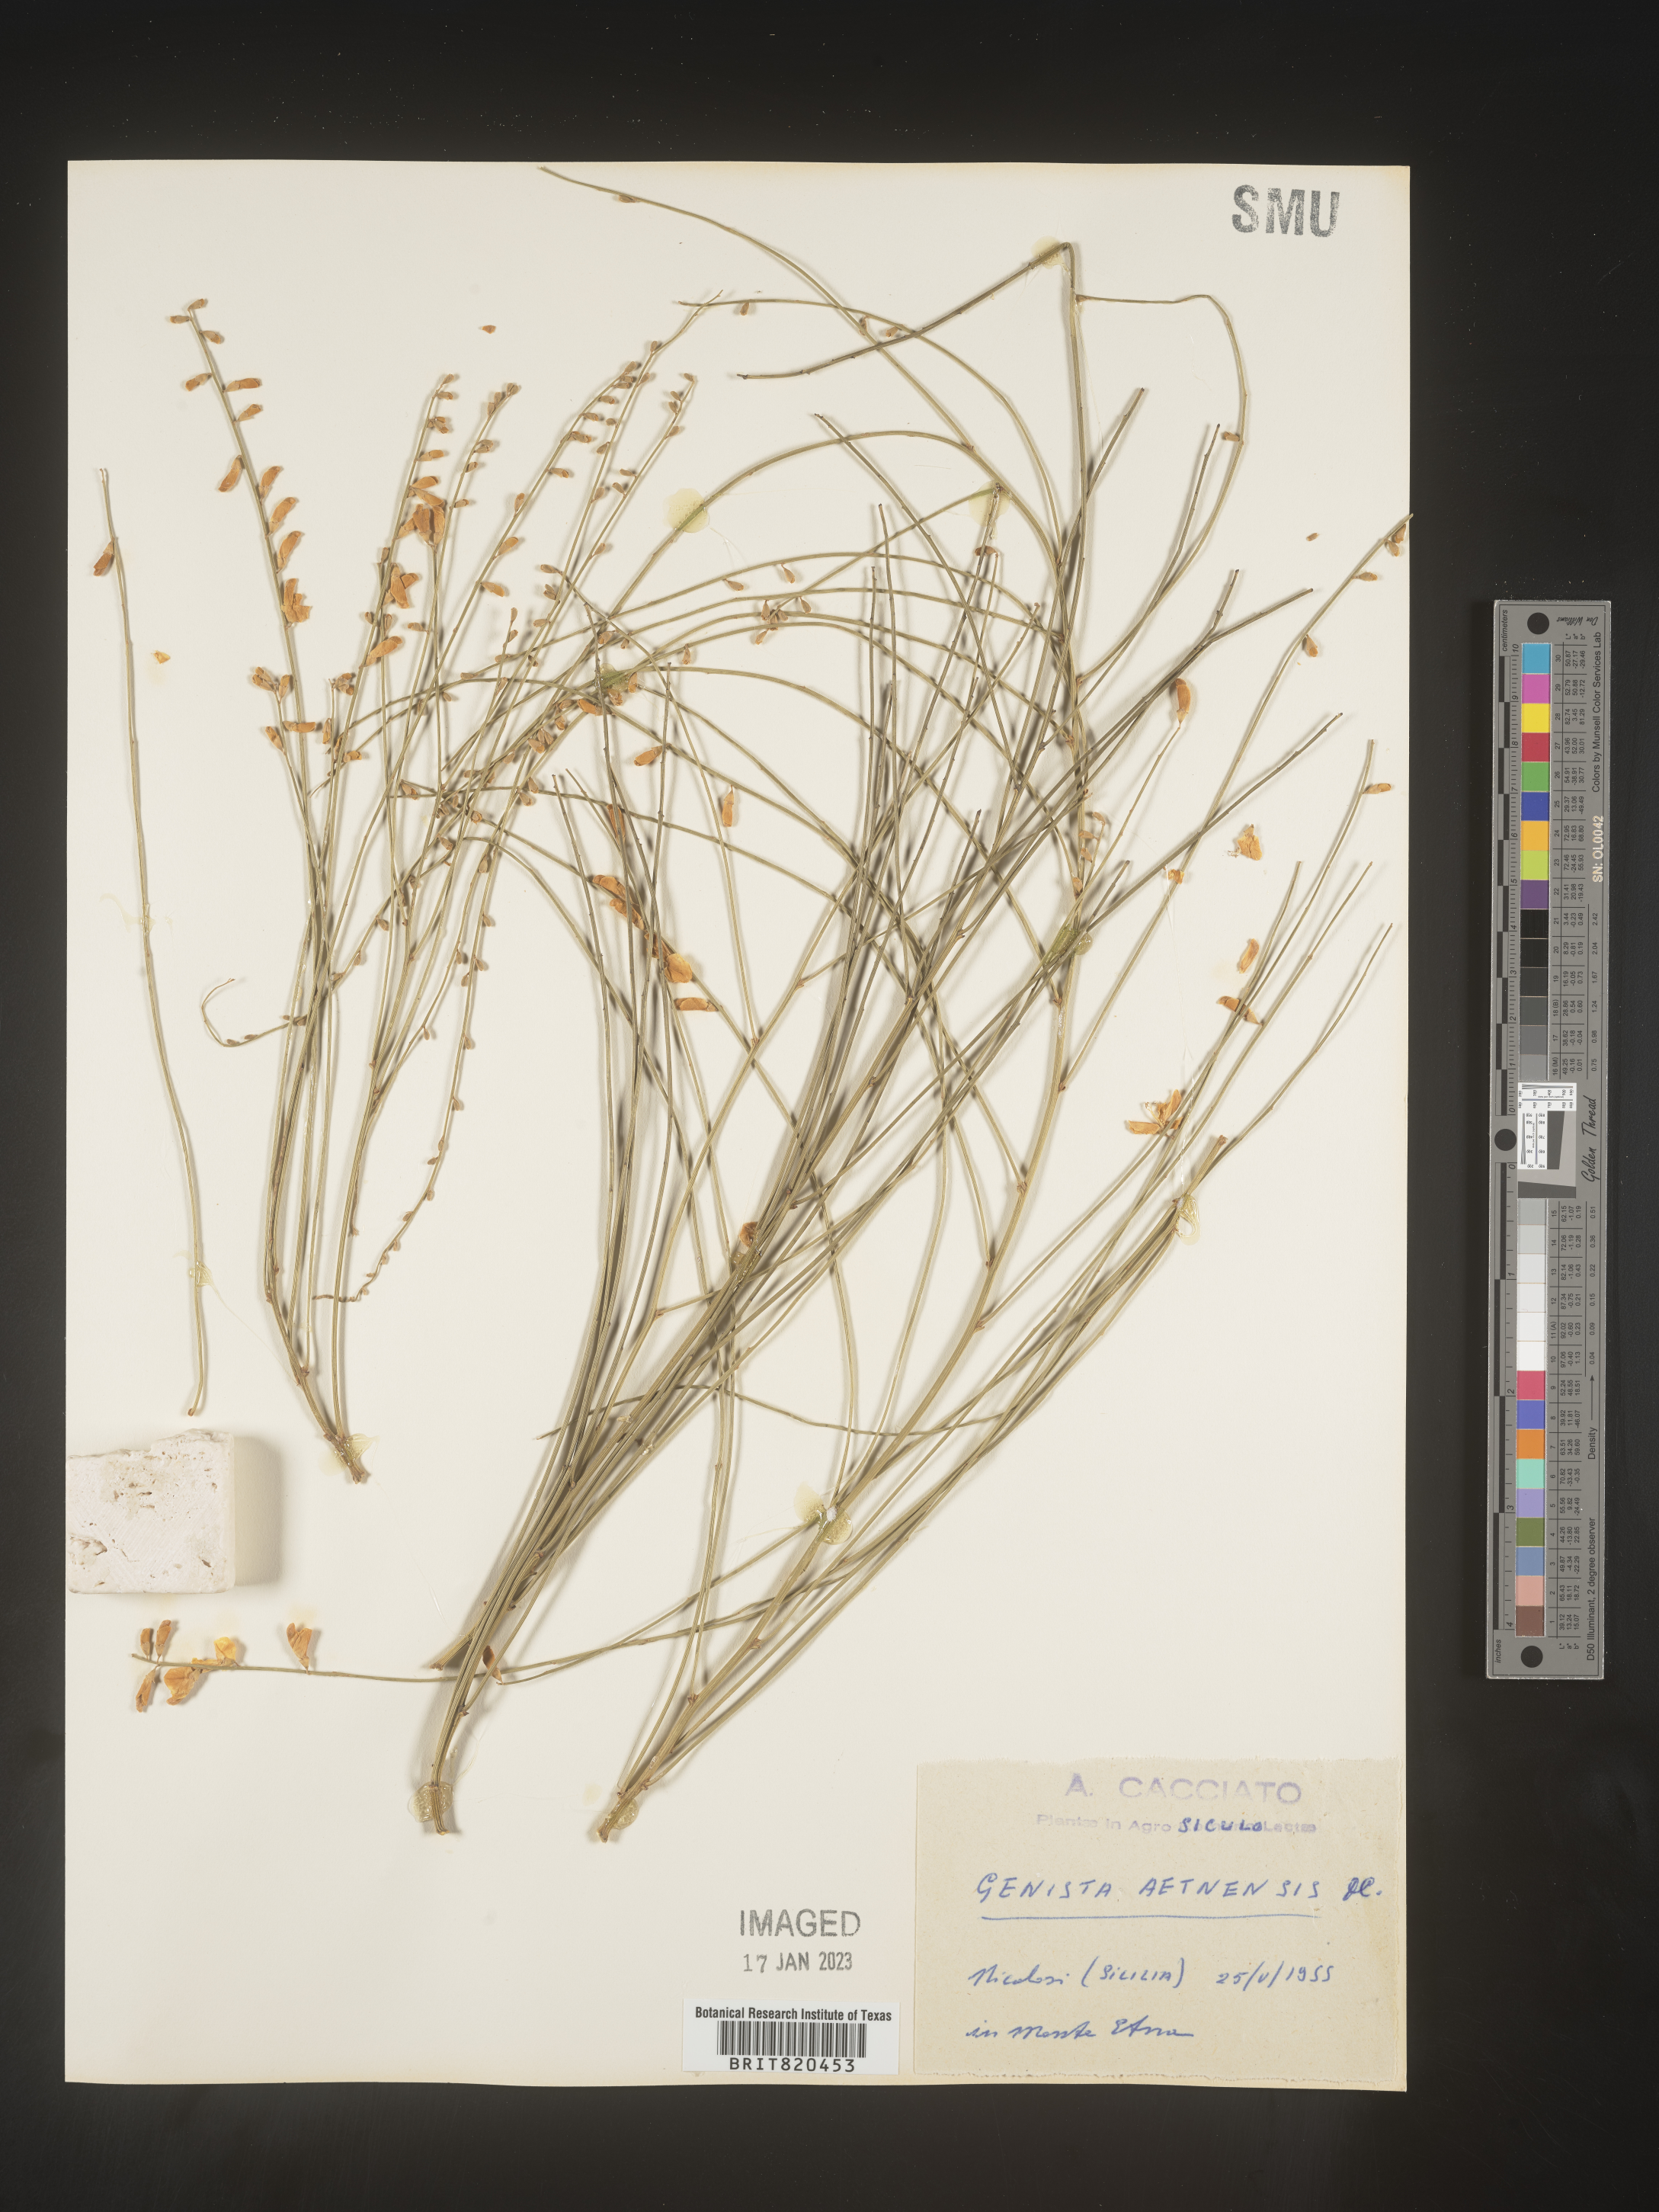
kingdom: Plantae
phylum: Tracheophyta
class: Magnoliopsida
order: Fabales
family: Fabaceae
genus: Genista
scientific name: Genista
